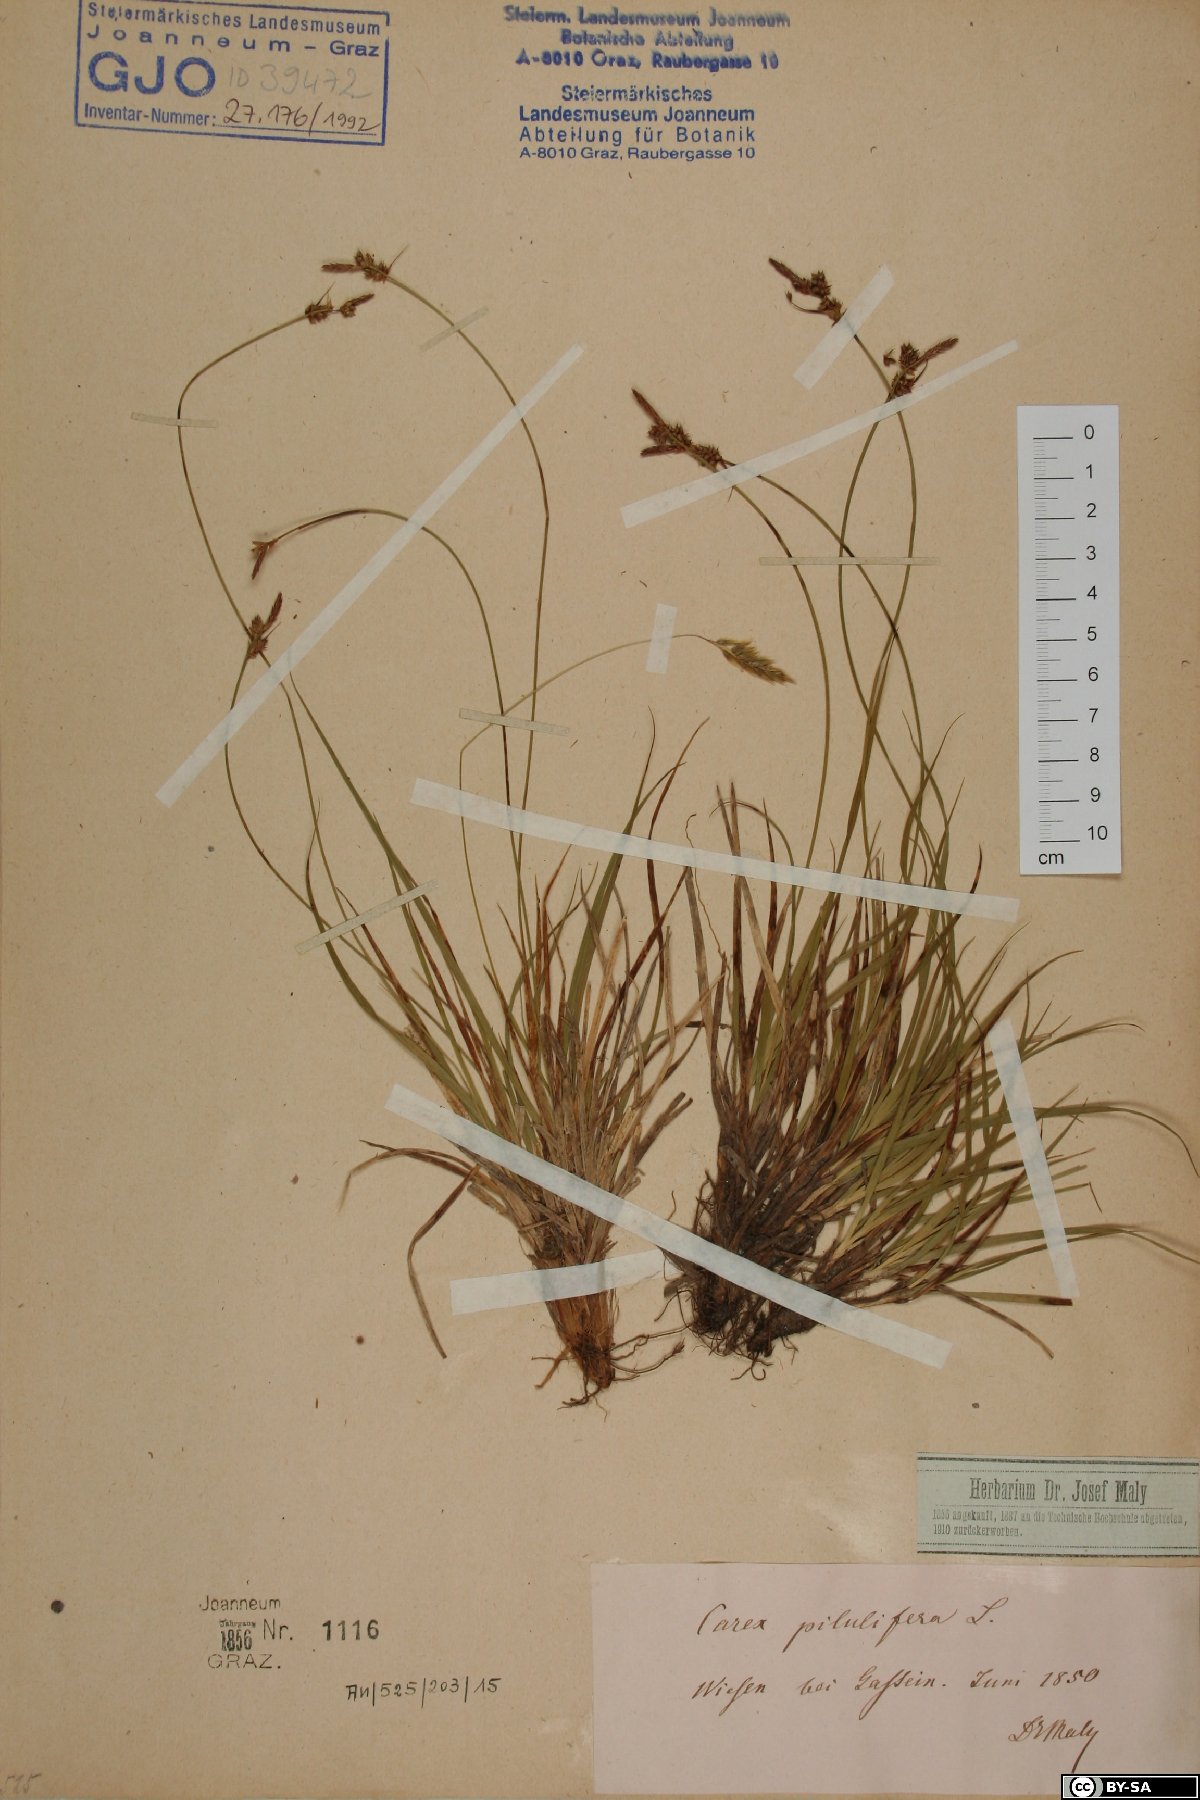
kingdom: Plantae
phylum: Tracheophyta
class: Liliopsida
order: Poales
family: Cyperaceae
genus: Carex
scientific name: Carex pilulifera
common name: Pill sedge
